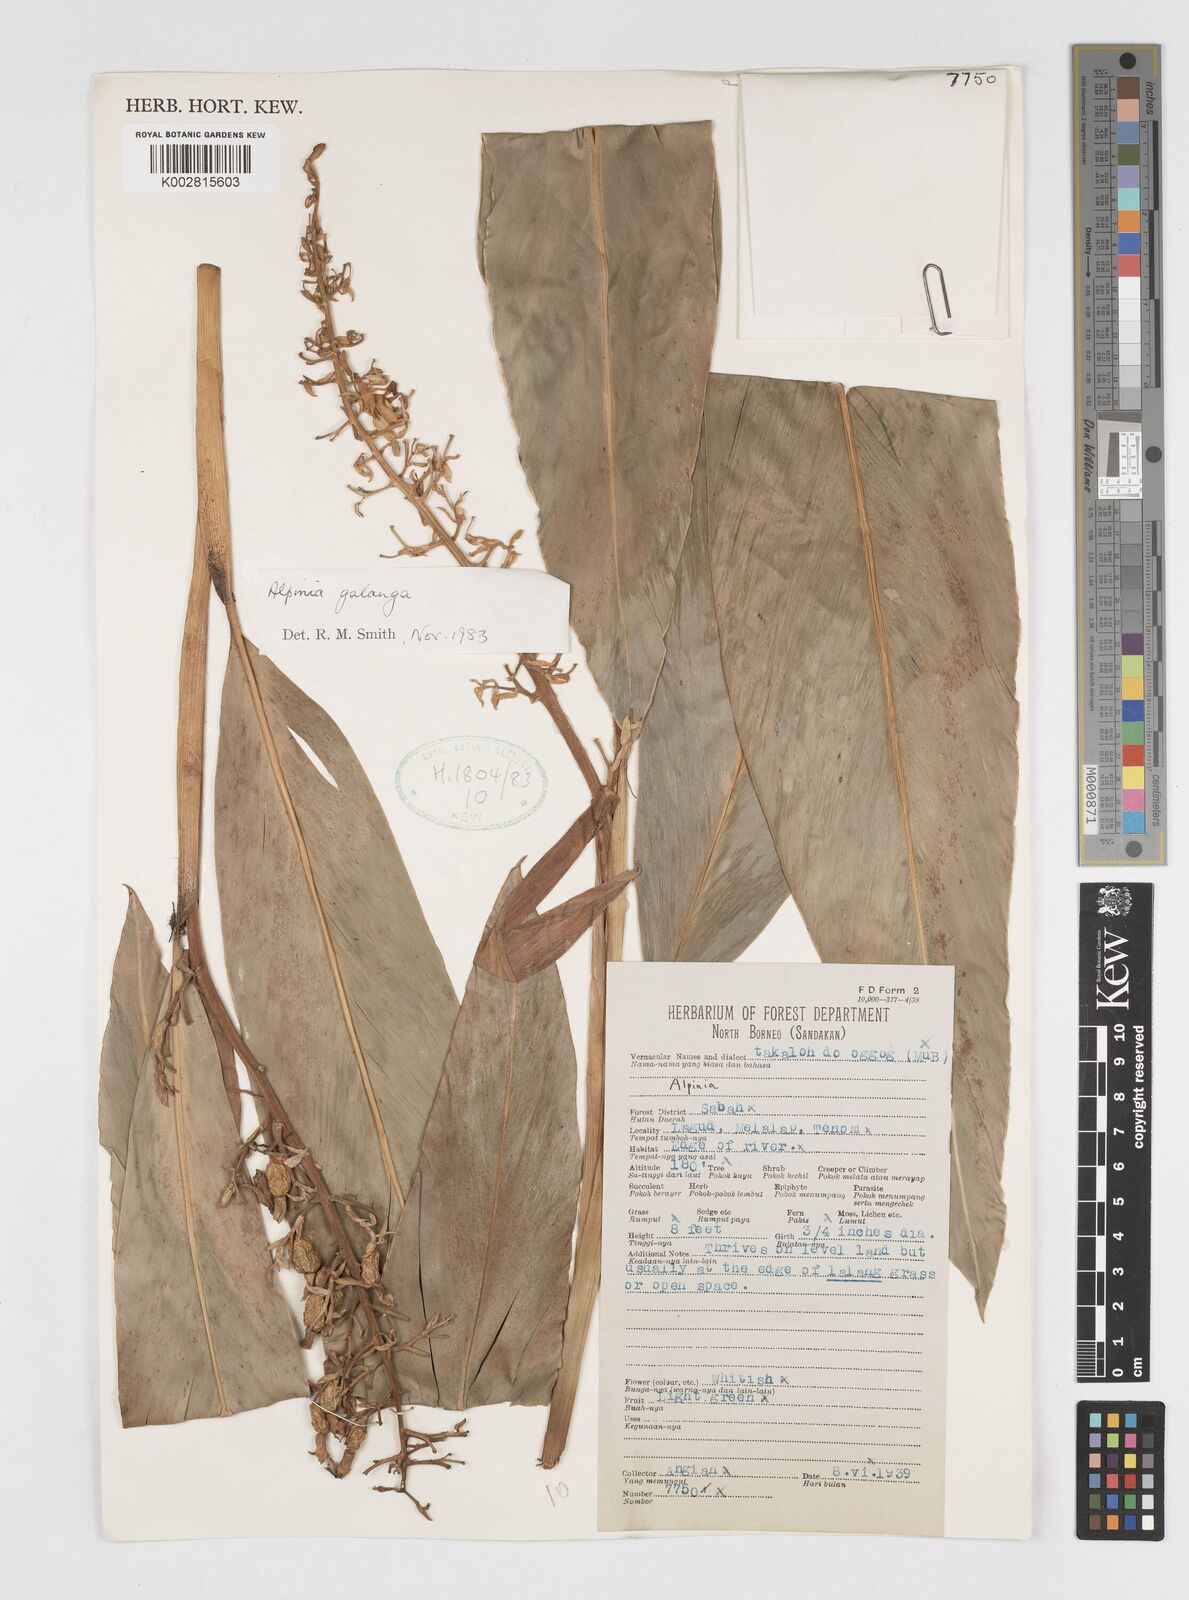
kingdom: Plantae
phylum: Tracheophyta
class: Liliopsida
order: Zingiberales
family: Zingiberaceae
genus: Alpinia
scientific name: Alpinia galanga
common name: Siamese-ginger
